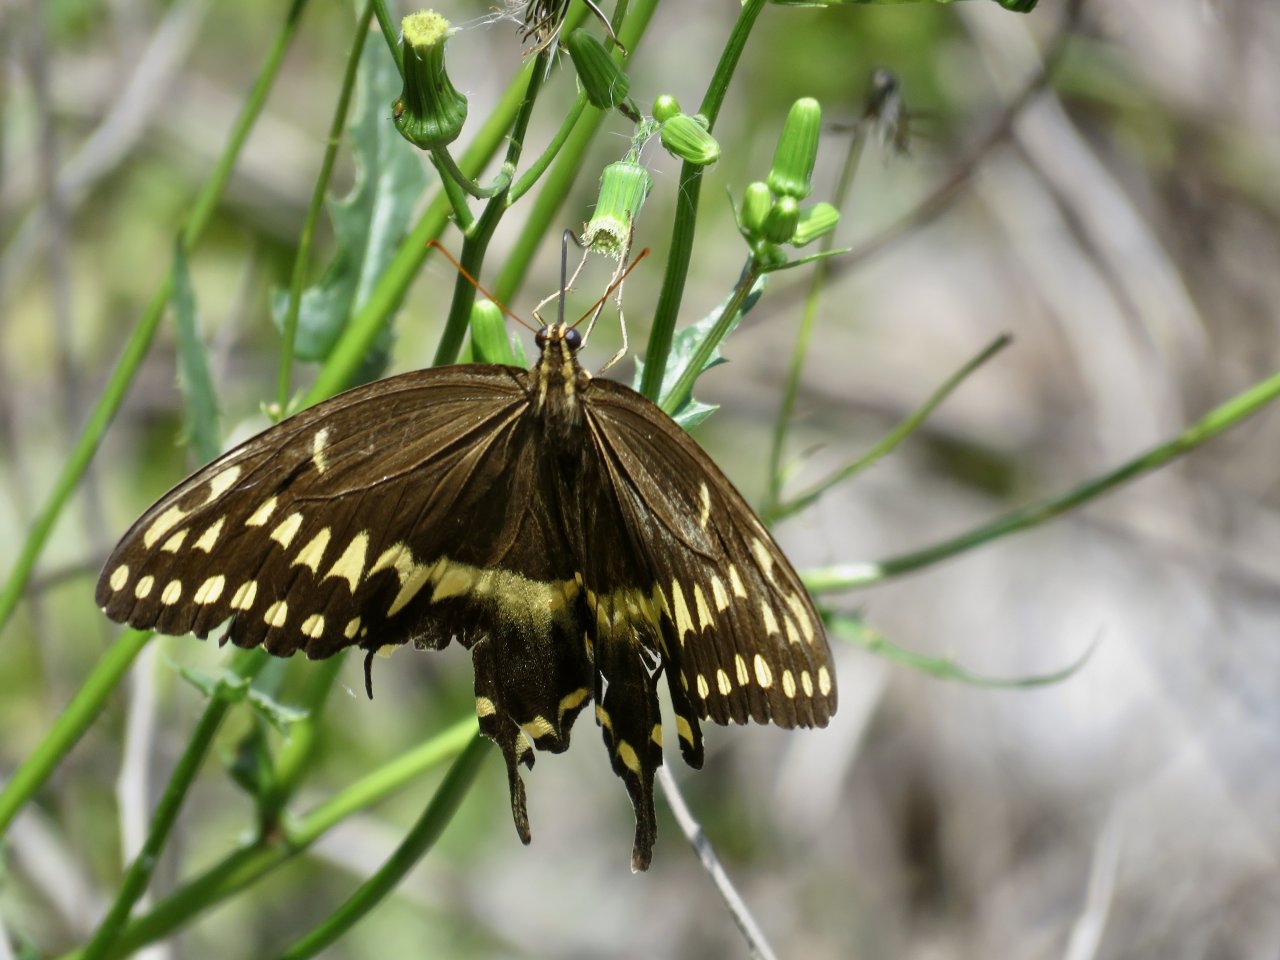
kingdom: Animalia
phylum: Arthropoda
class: Insecta
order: Lepidoptera
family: Papilionidae
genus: Pterourus
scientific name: Pterourus palamedes
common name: Palamedes Swallowtail
